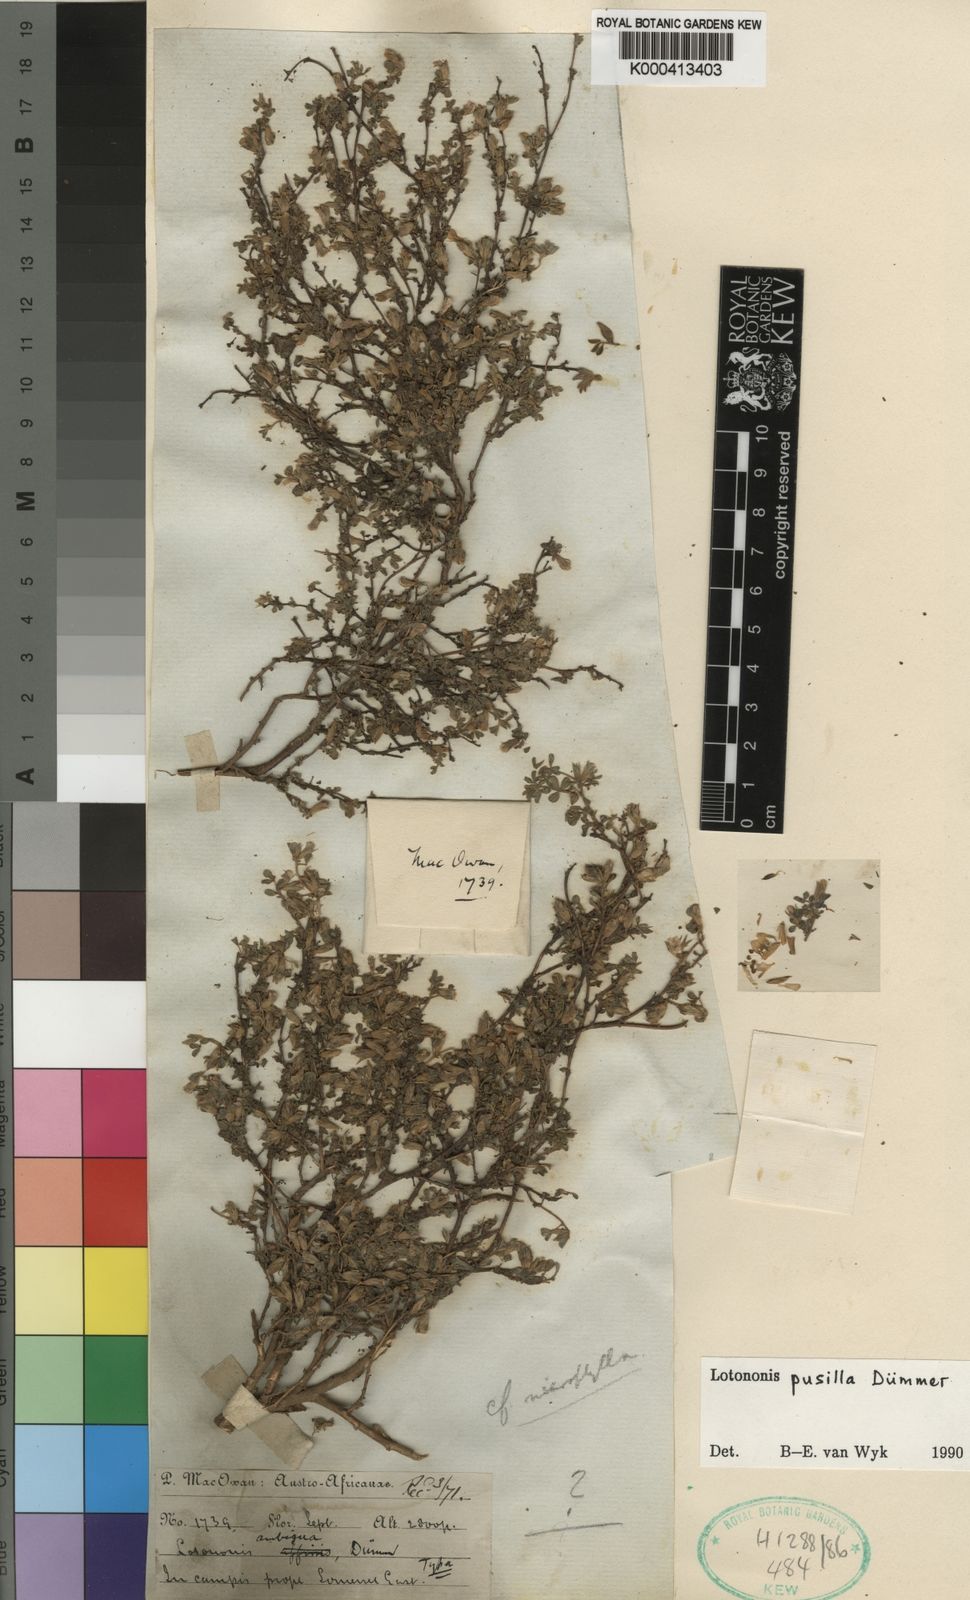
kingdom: Plantae
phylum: Tracheophyta
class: Magnoliopsida
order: Fabales
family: Fabaceae
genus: Leobordea
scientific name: Leobordea pusilla
